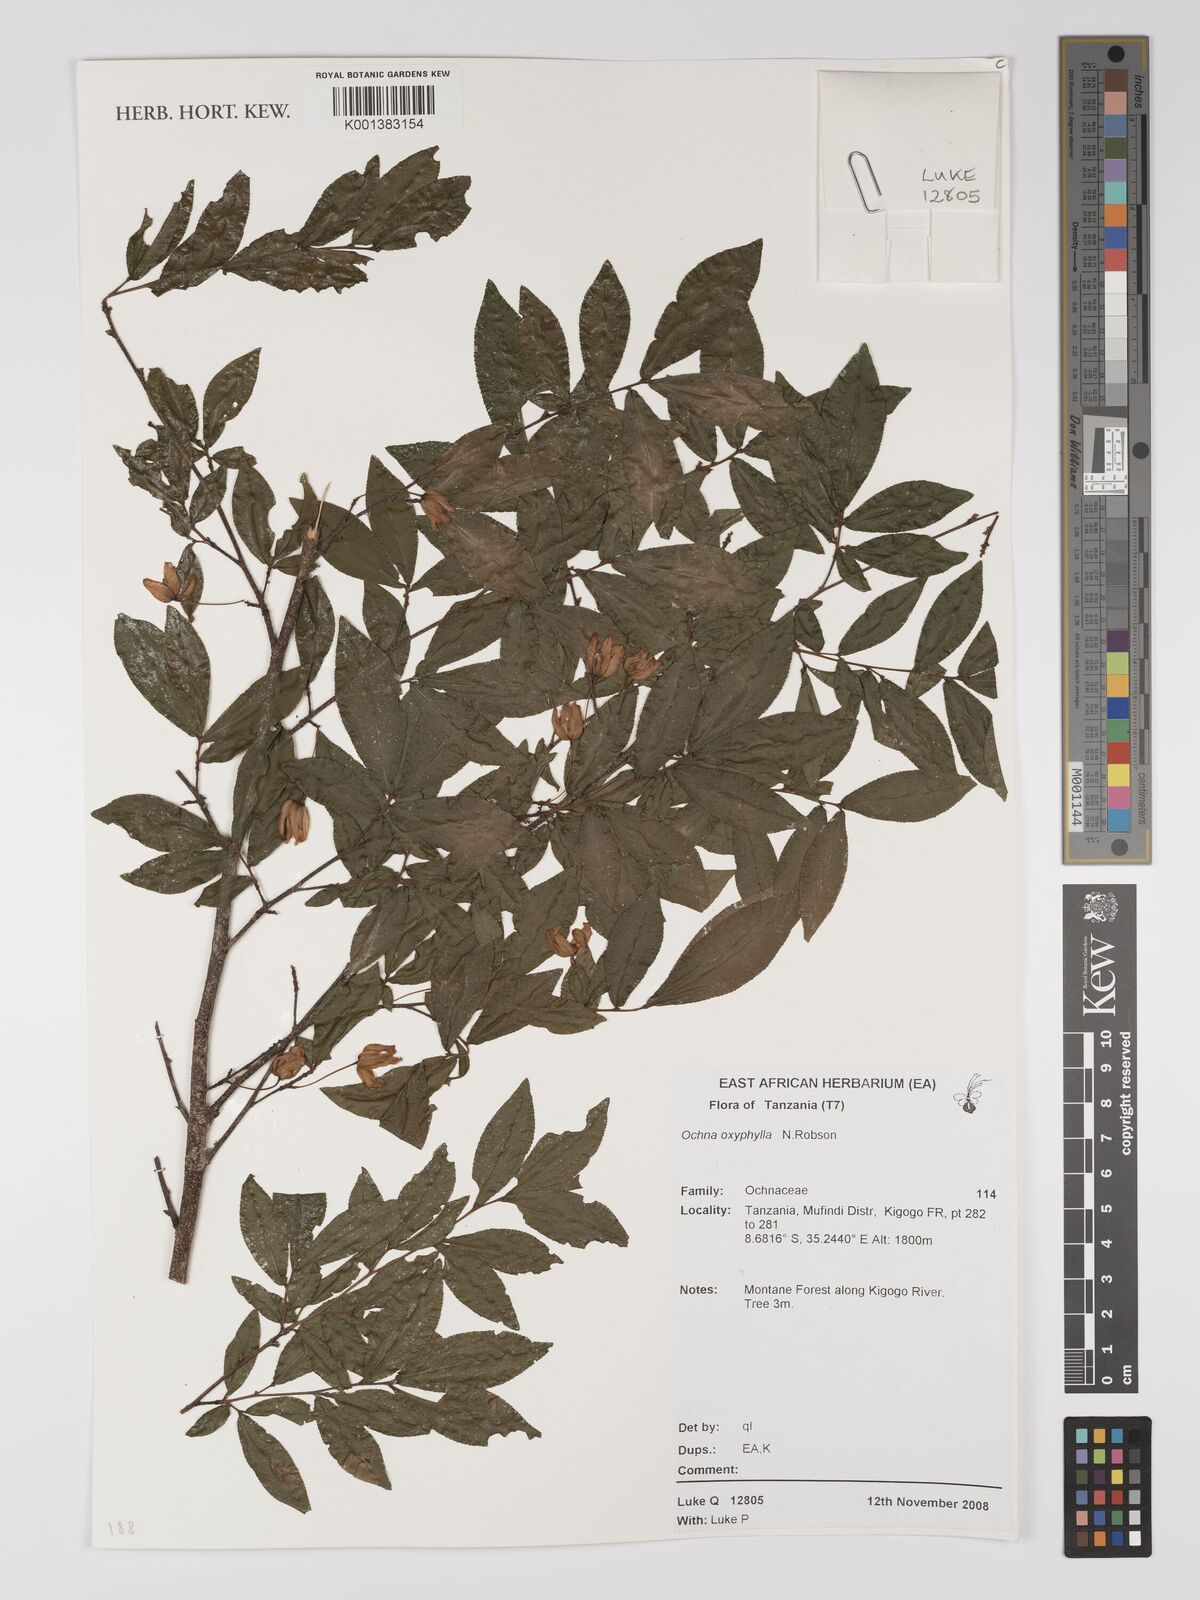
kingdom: Plantae
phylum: Tracheophyta
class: Magnoliopsida
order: Malpighiales
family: Ochnaceae
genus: Ochna
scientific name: Ochna oxyphylla
